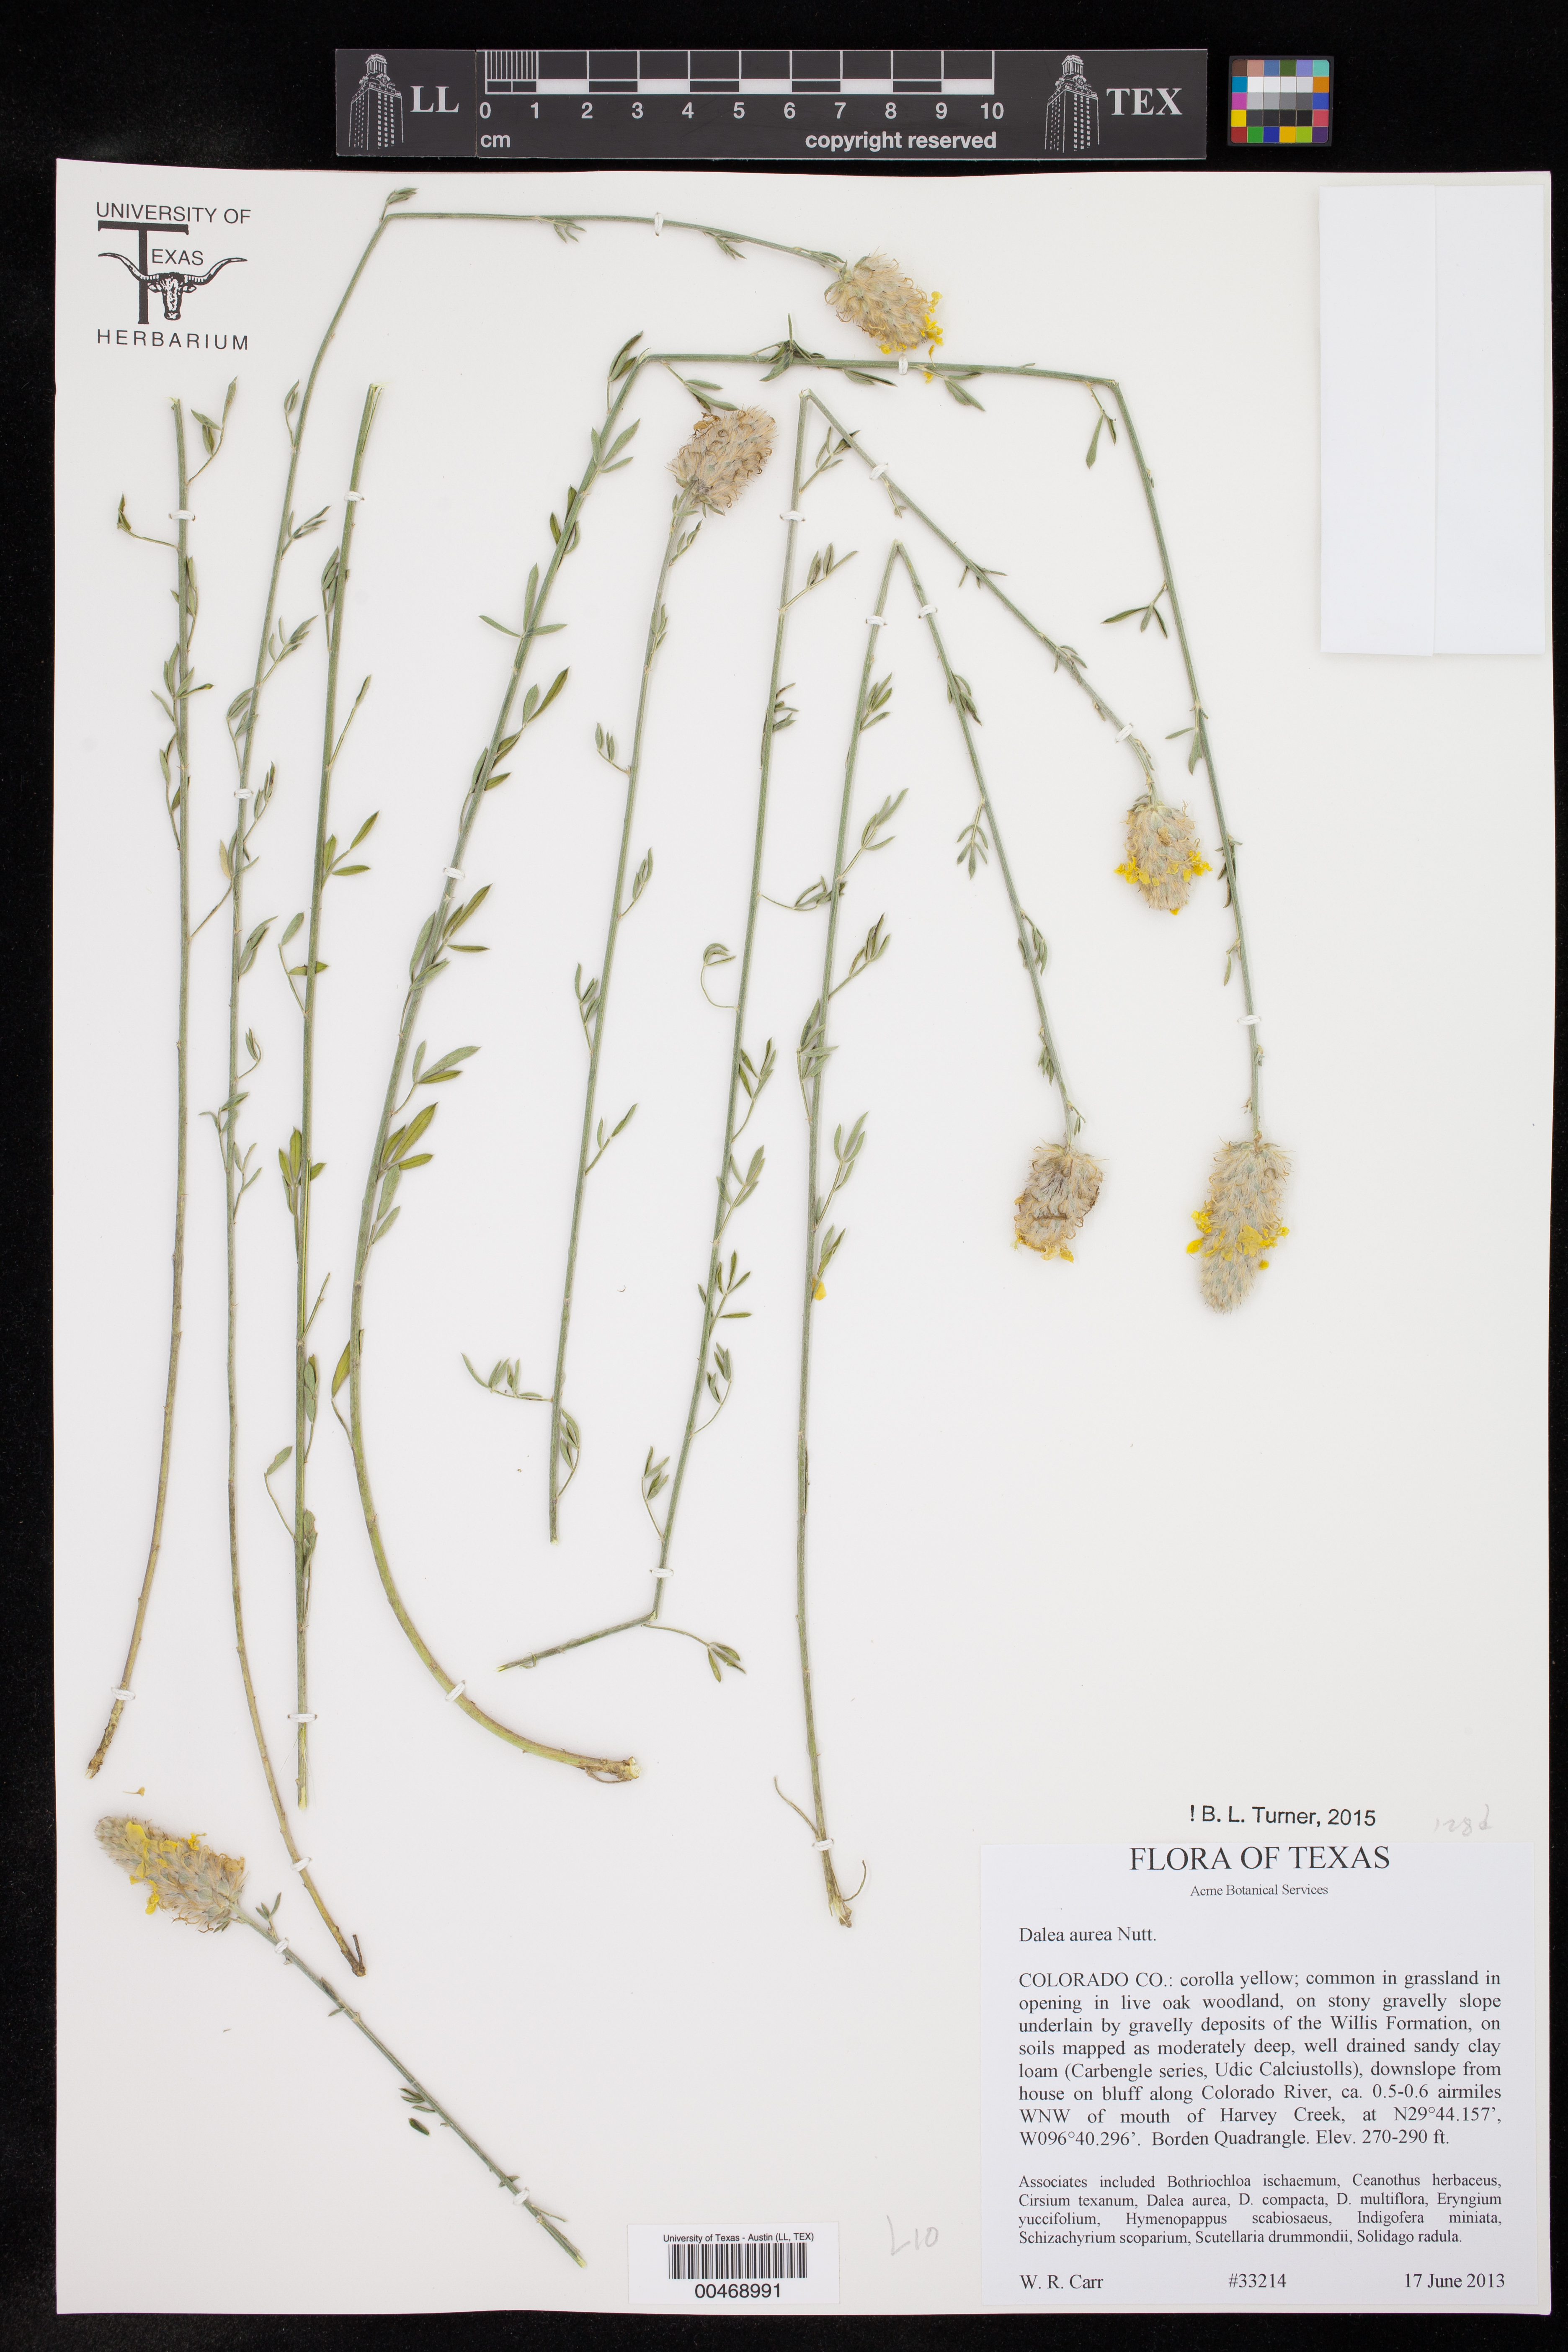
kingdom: Plantae
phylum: Tracheophyta
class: Magnoliopsida
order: Fabales
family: Fabaceae
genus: Dalea
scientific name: Dalea aurea
